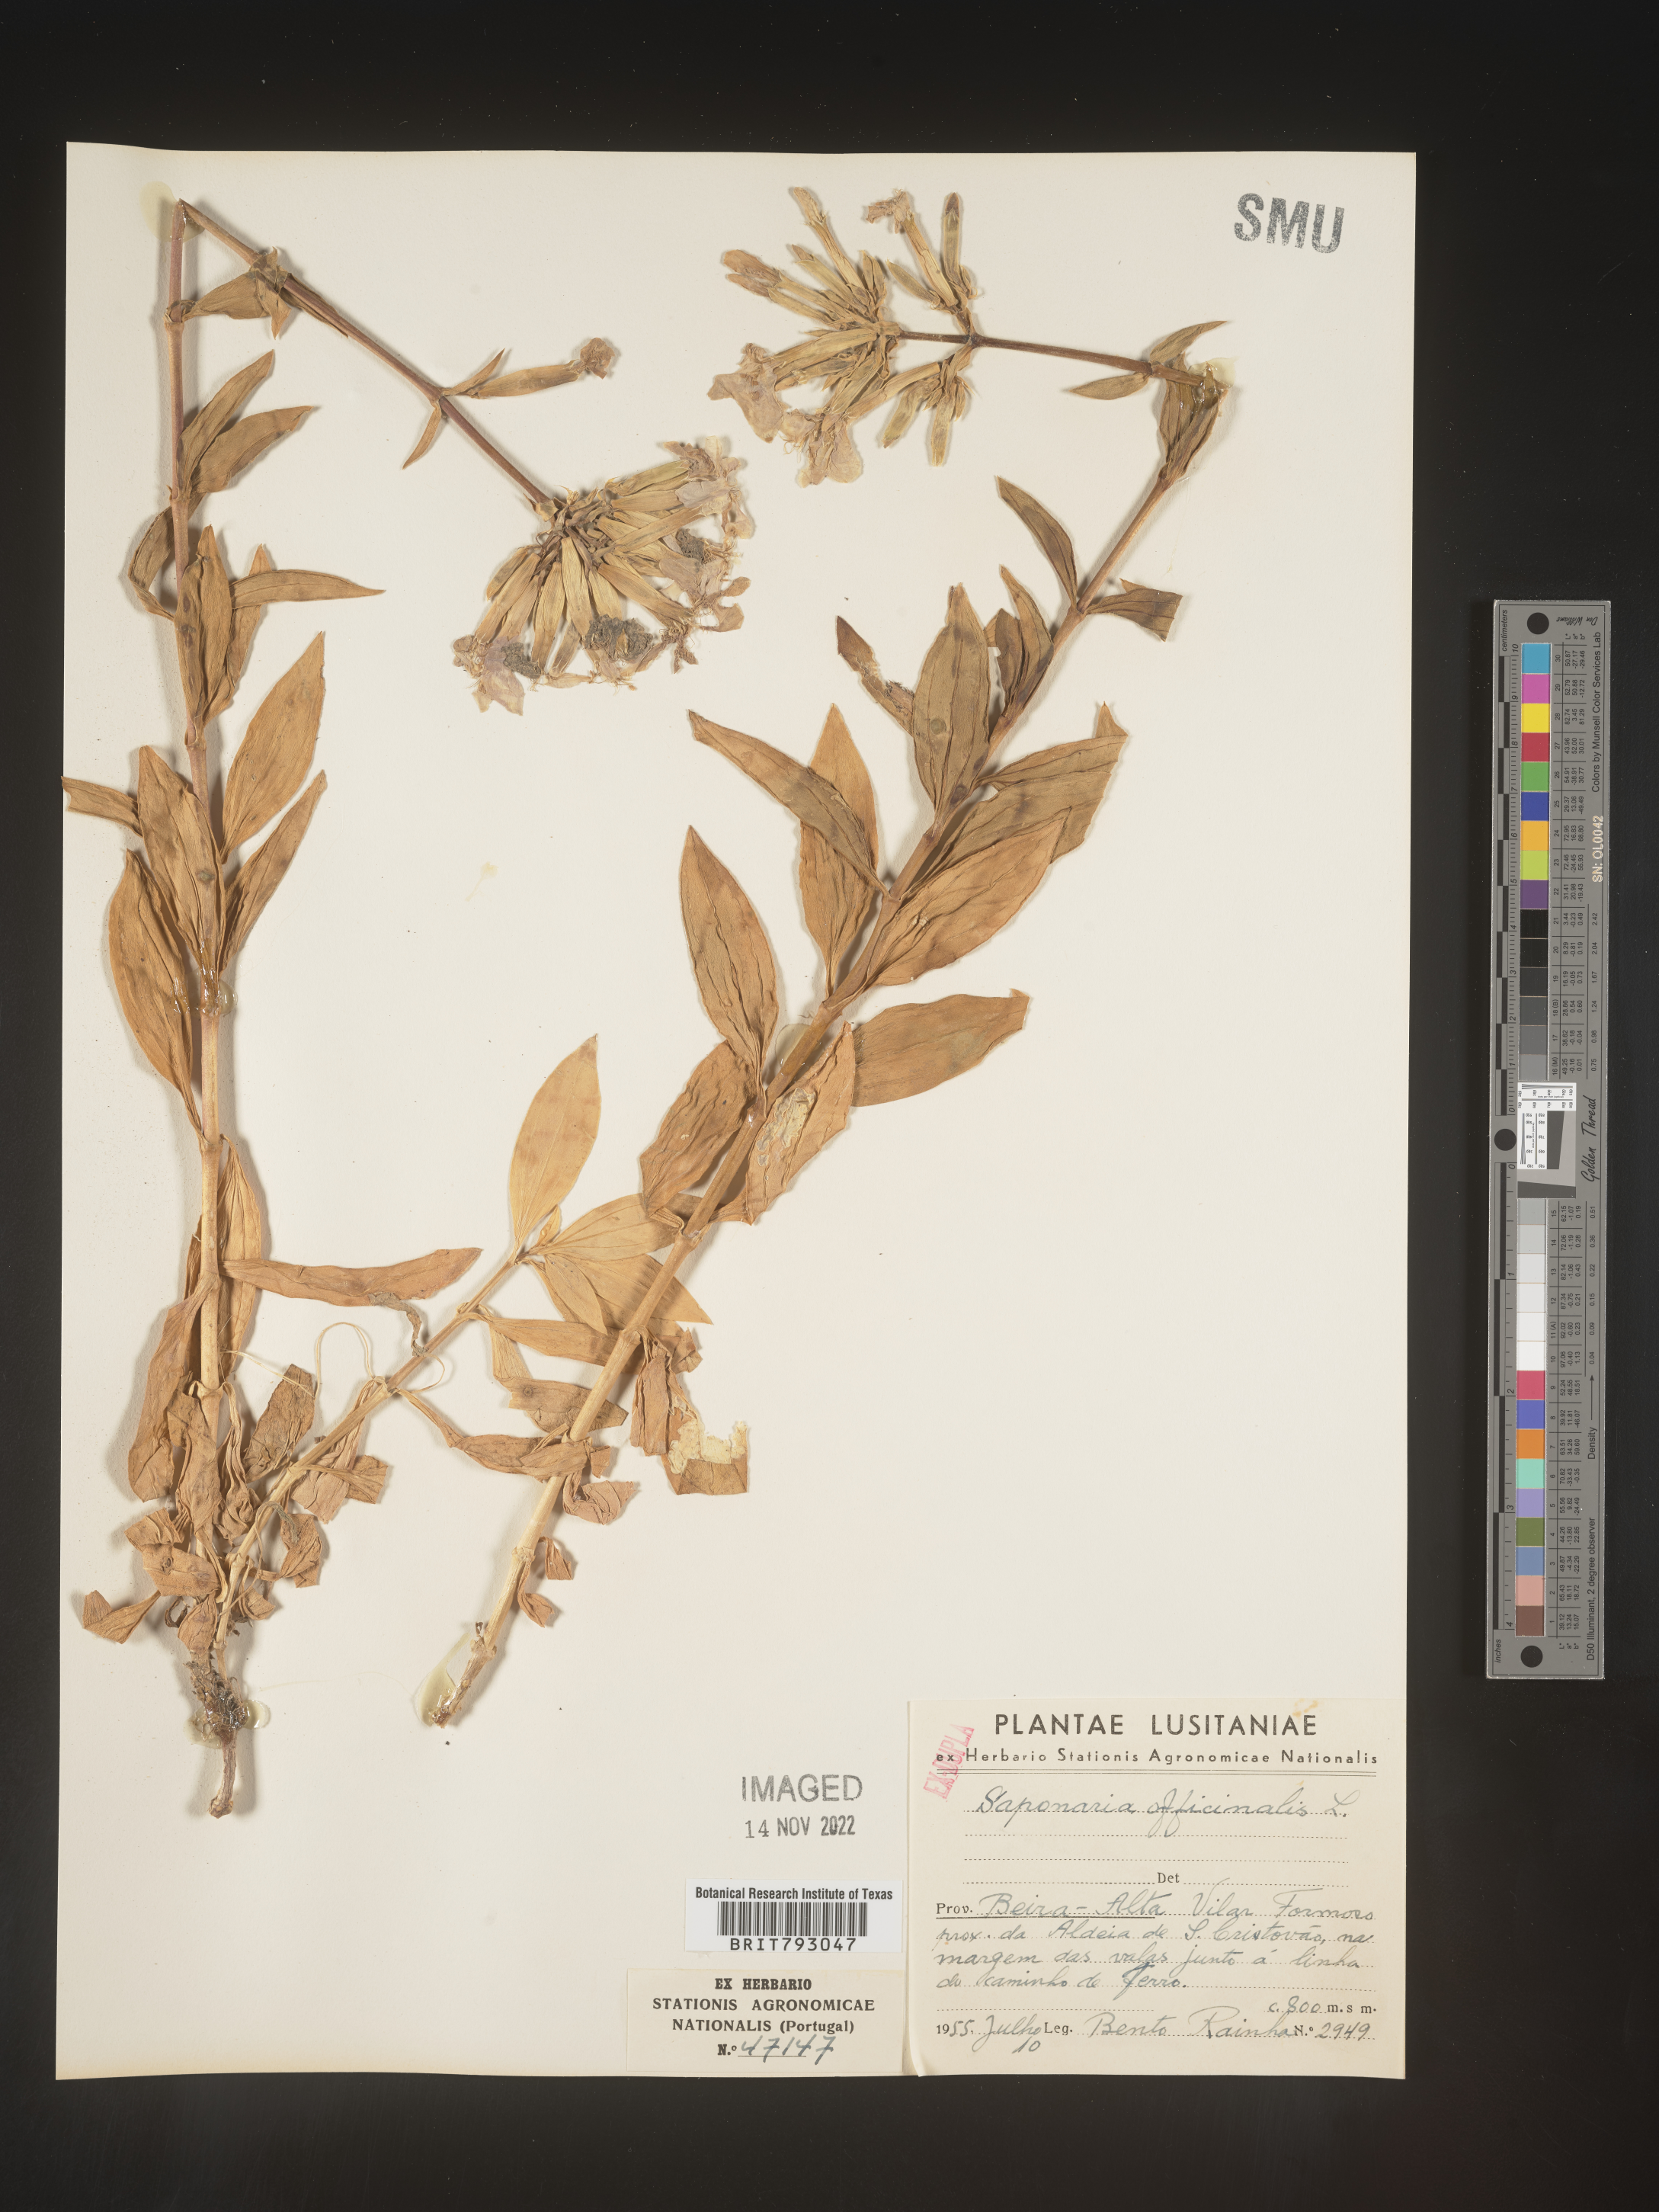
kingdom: Plantae
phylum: Tracheophyta
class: Magnoliopsida
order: Caryophyllales
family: Caryophyllaceae
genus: Saponaria
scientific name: Saponaria
